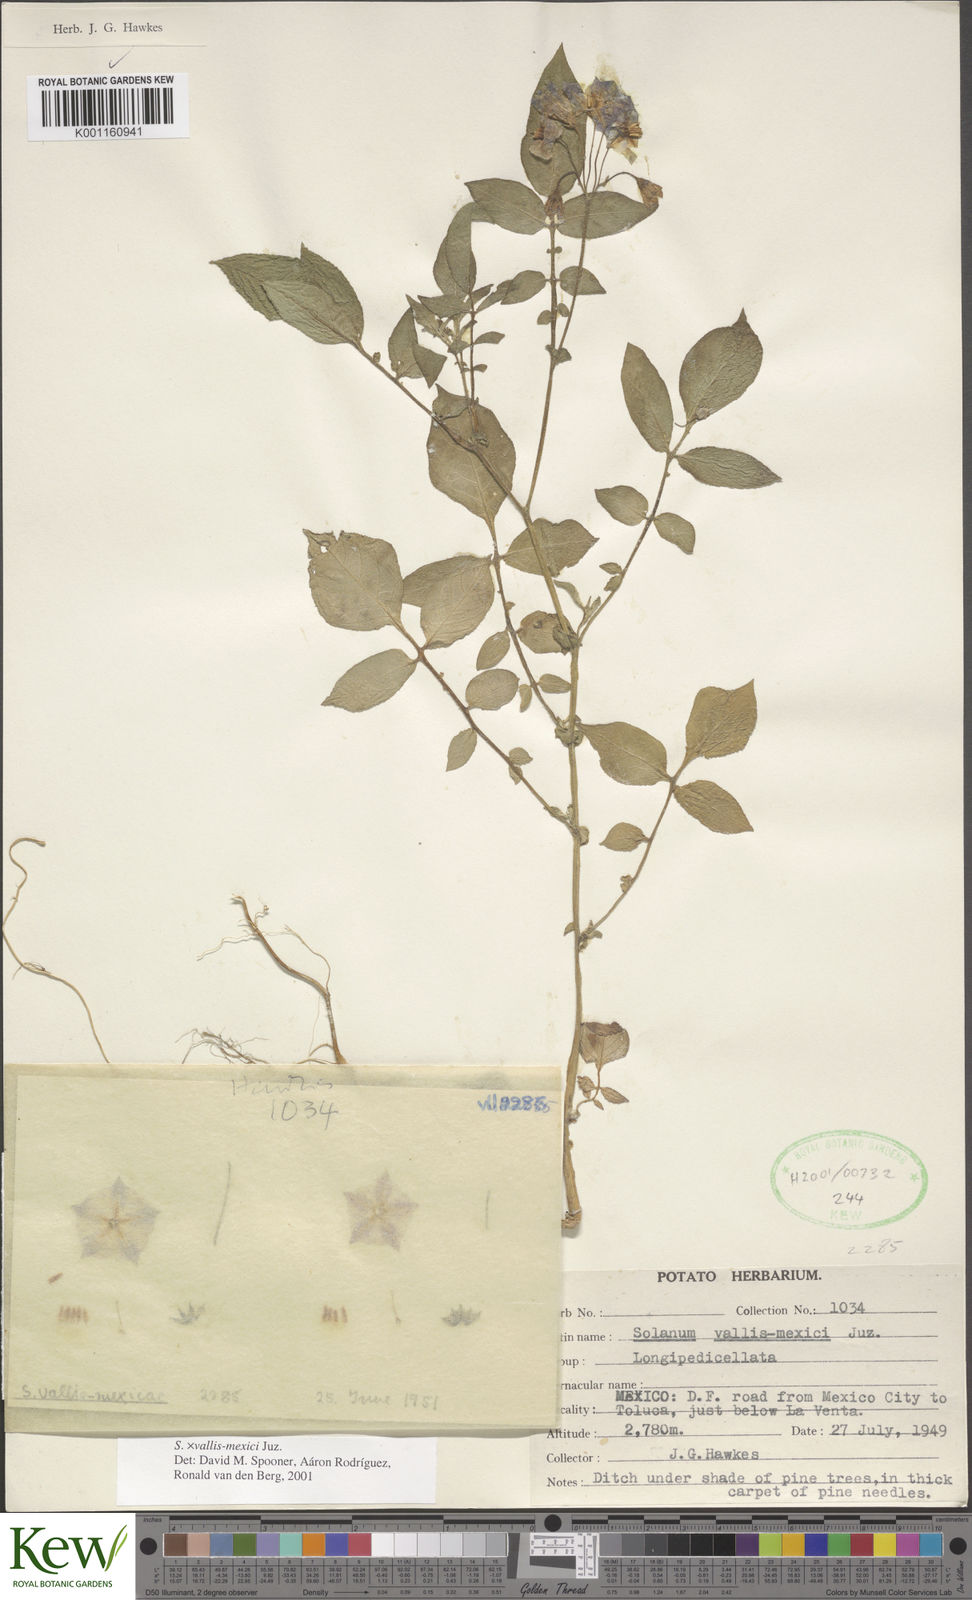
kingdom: Plantae
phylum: Tracheophyta
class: Magnoliopsida
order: Solanales
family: Solanaceae
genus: Solanum
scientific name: Solanum vallis-mexici
